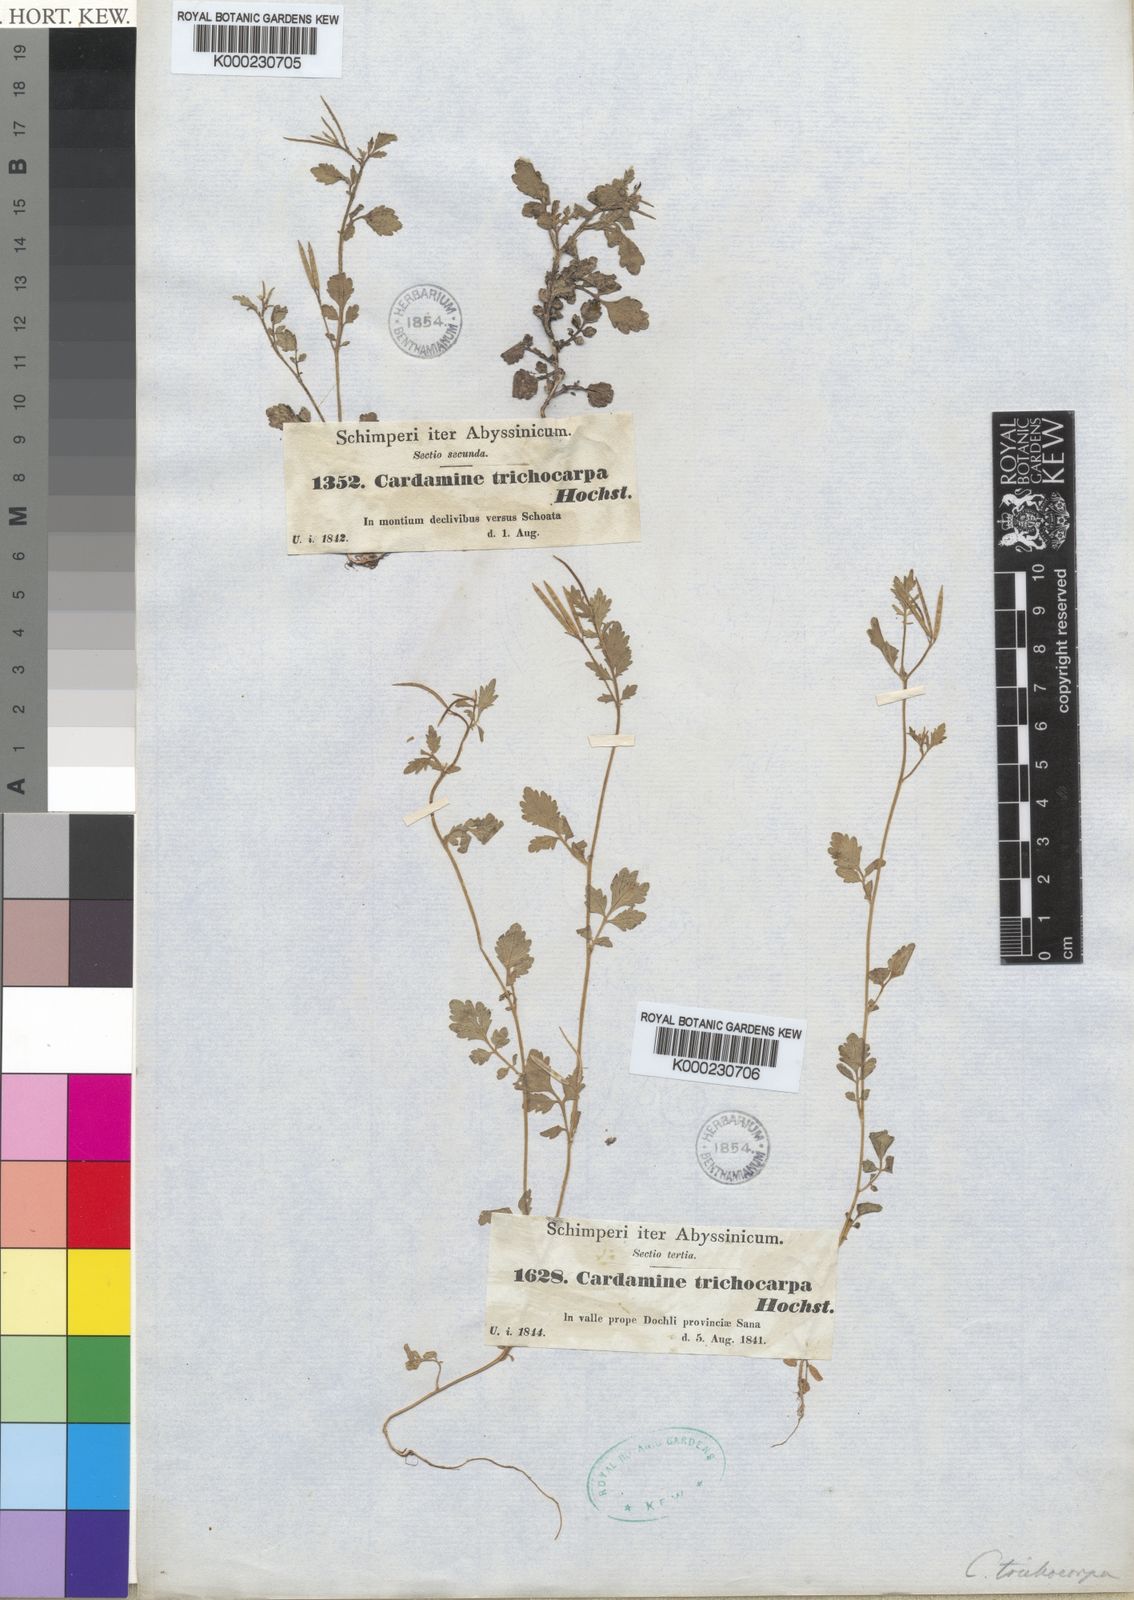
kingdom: Plantae
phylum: Tracheophyta
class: Magnoliopsida
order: Brassicales
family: Brassicaceae
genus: Cardamine
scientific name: Cardamine trichocarpa
